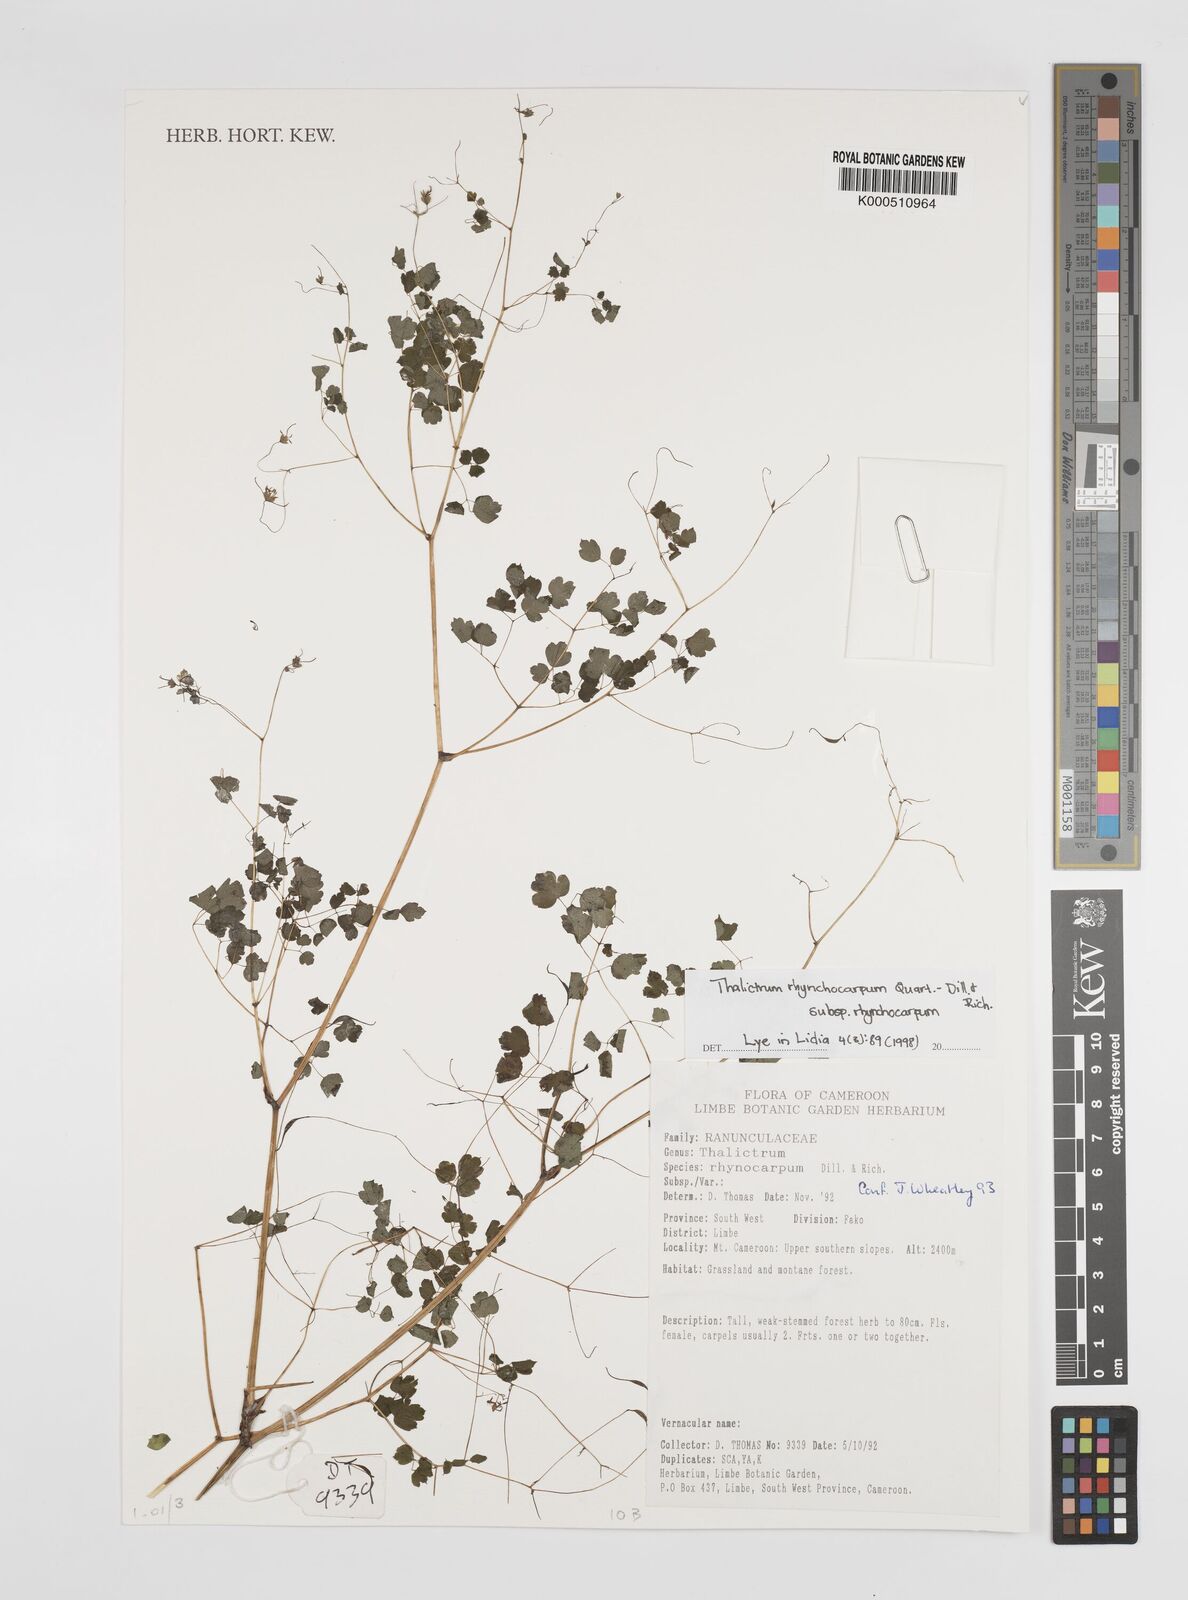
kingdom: Plantae
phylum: Tracheophyta
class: Magnoliopsida
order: Ranunculales
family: Ranunculaceae
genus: Thalictrum
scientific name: Thalictrum rhynchocarpum
